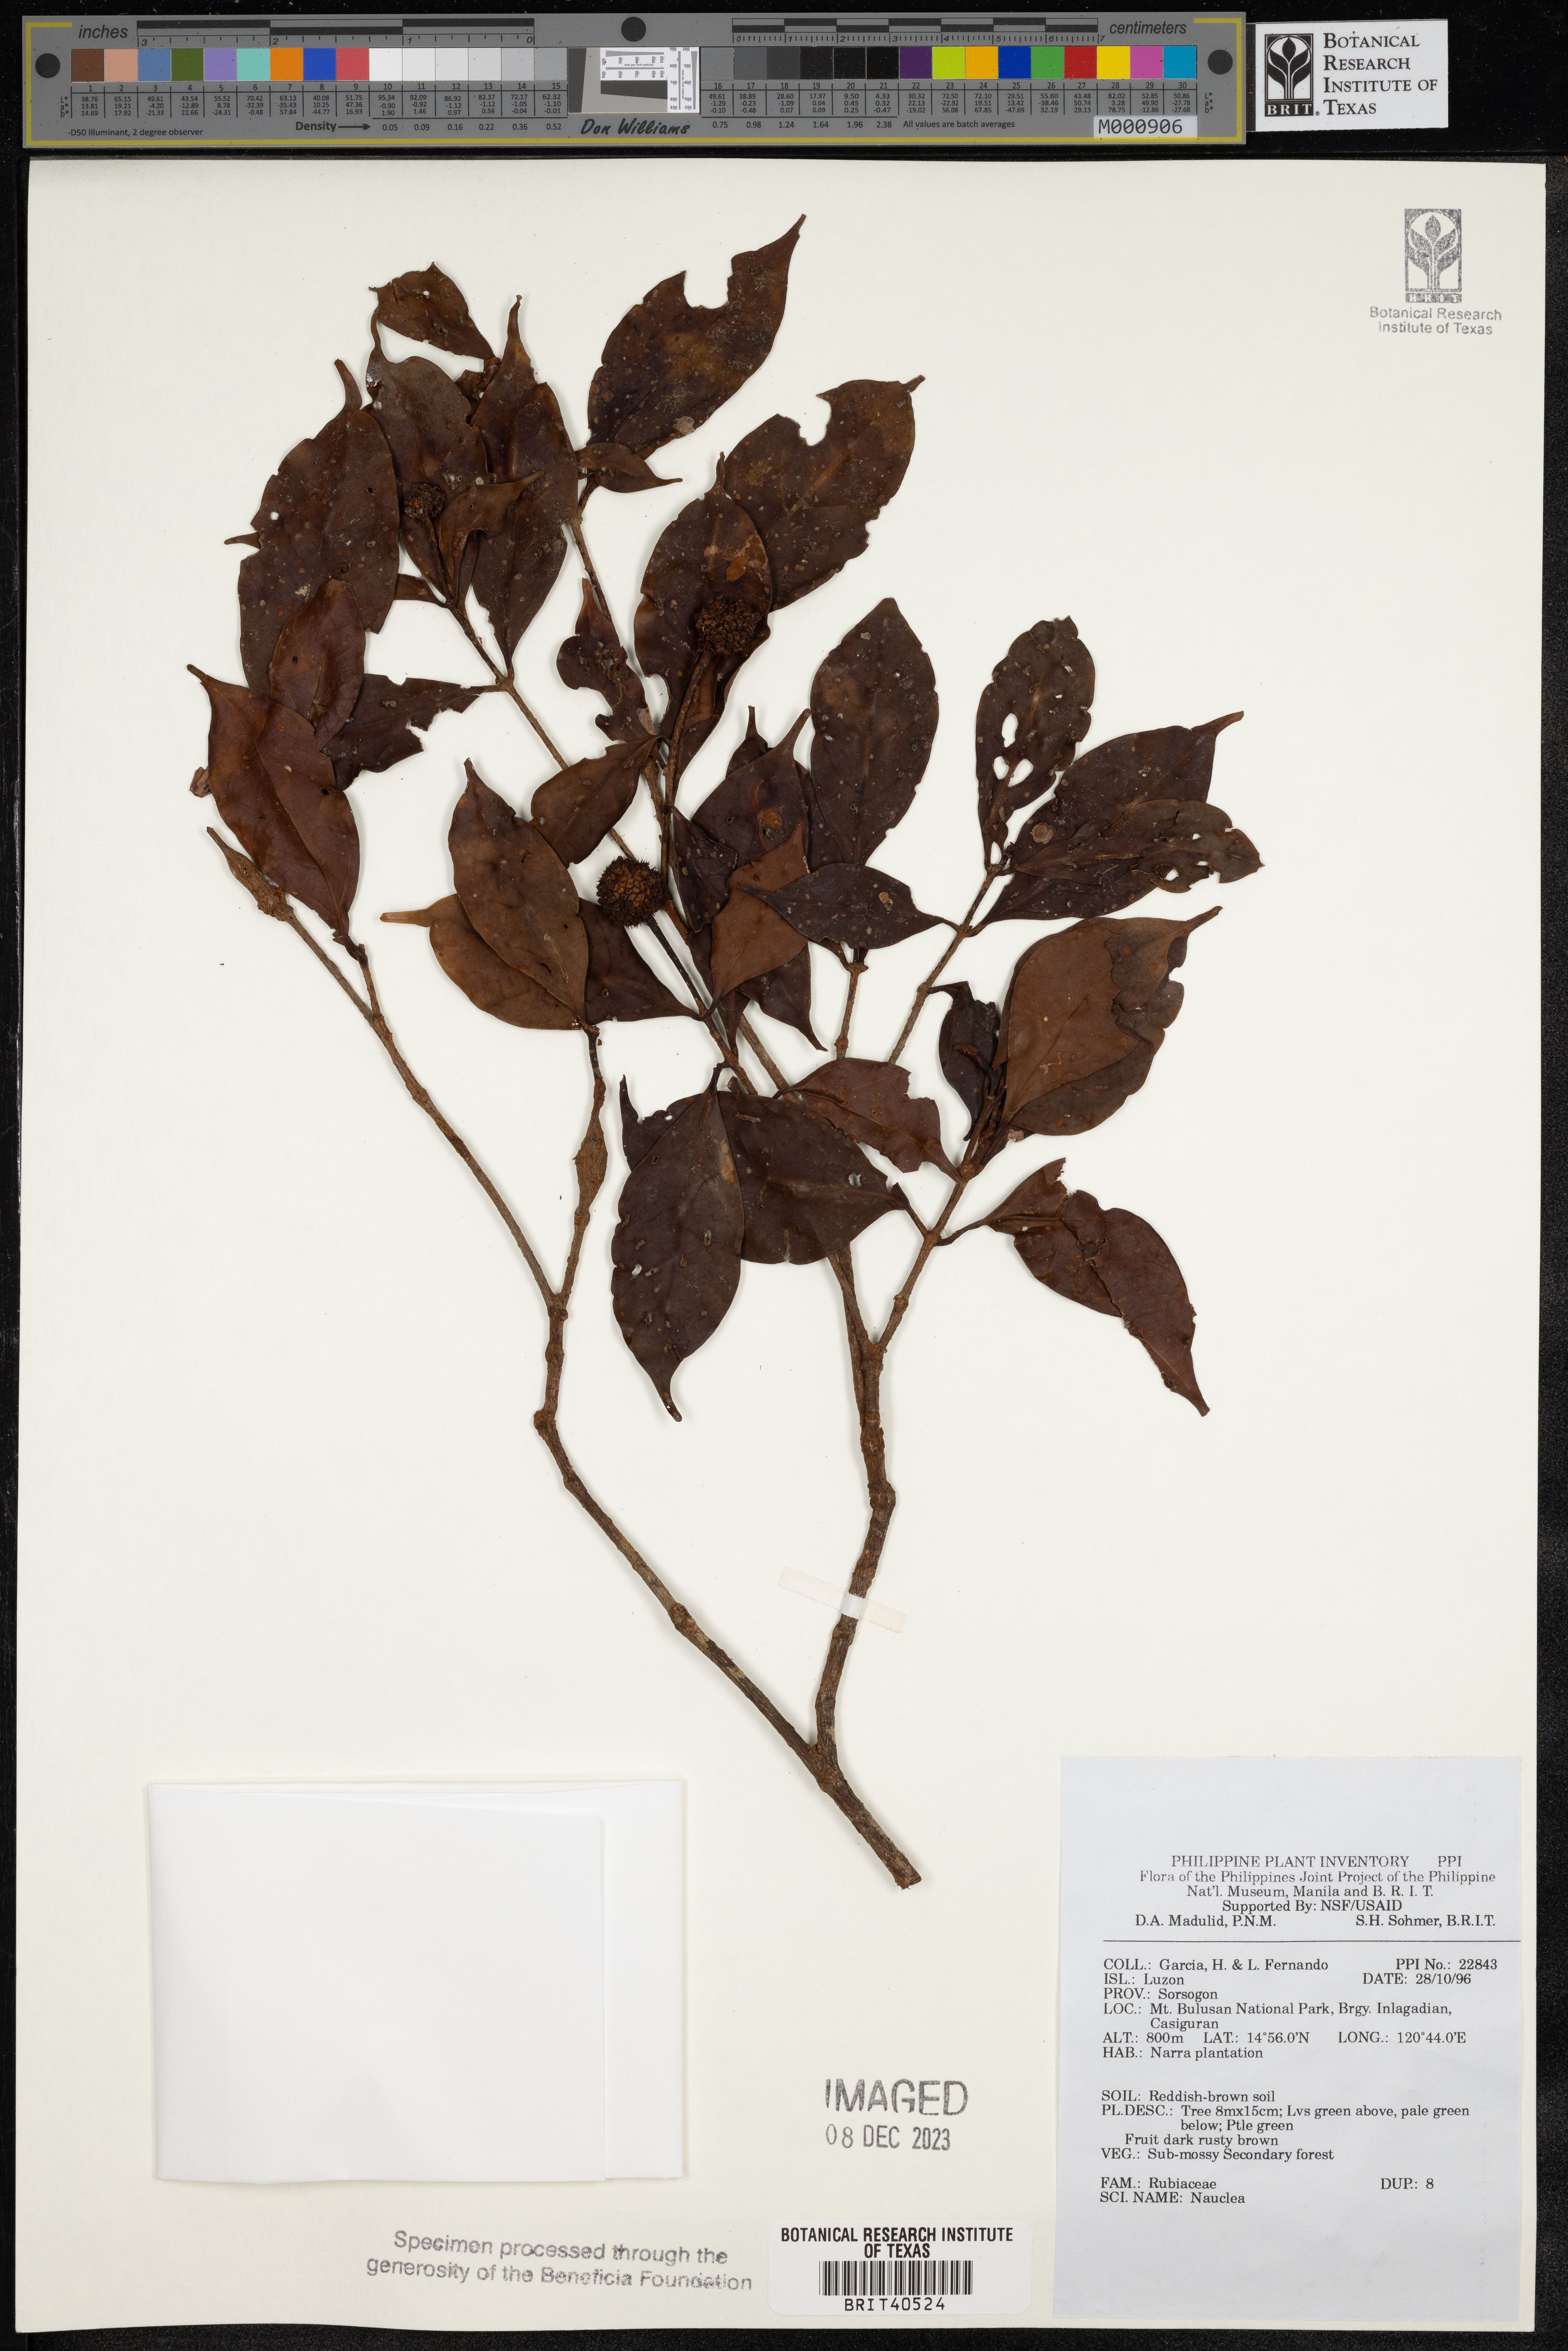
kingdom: Plantae
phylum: Tracheophyta
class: Magnoliopsida
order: Gentianales
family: Rubiaceae
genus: Nauclea
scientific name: Nauclea
